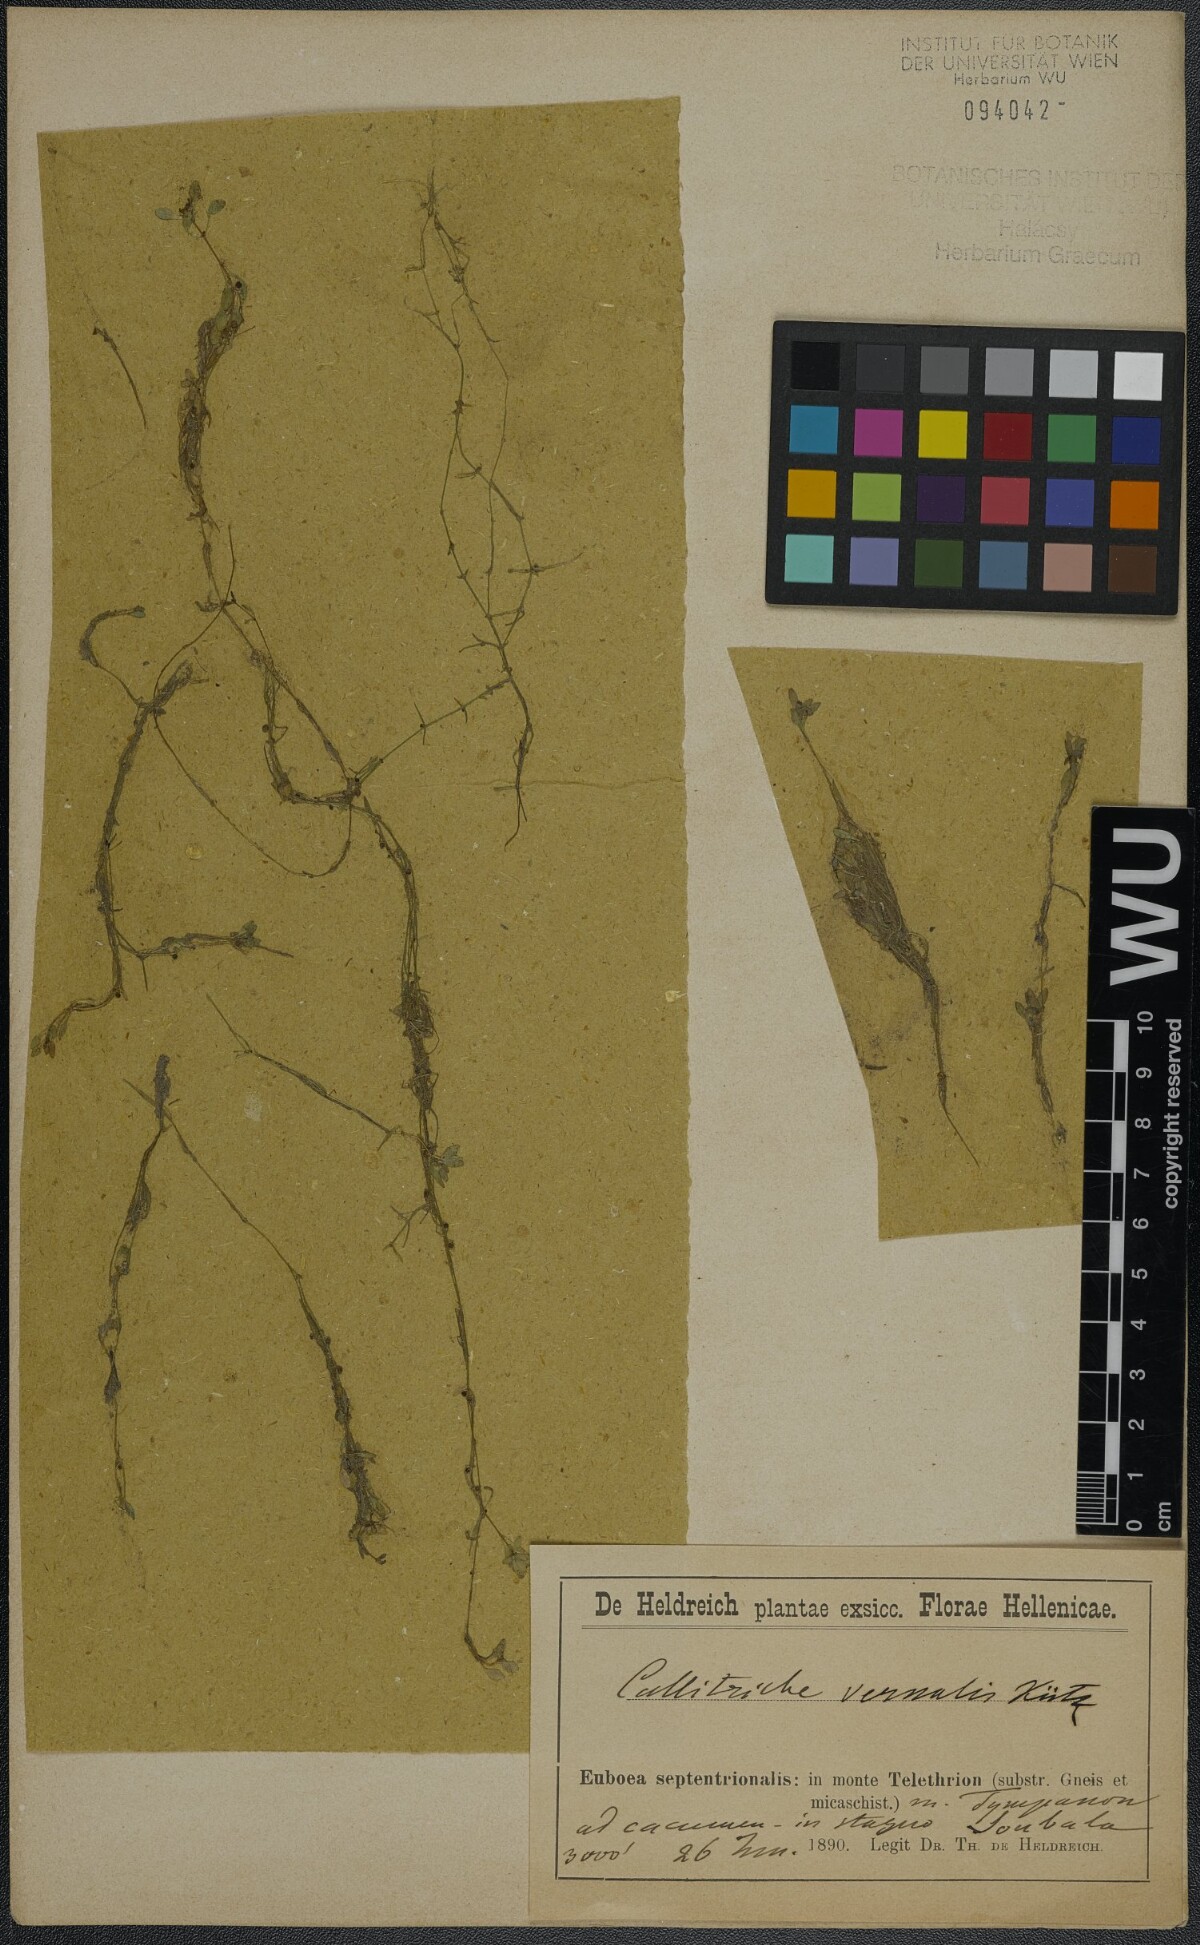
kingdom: Plantae
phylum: Tracheophyta
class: Magnoliopsida
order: Lamiales
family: Plantaginaceae
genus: Callitriche
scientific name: Callitriche brutia
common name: Pedunculate water-starwort
